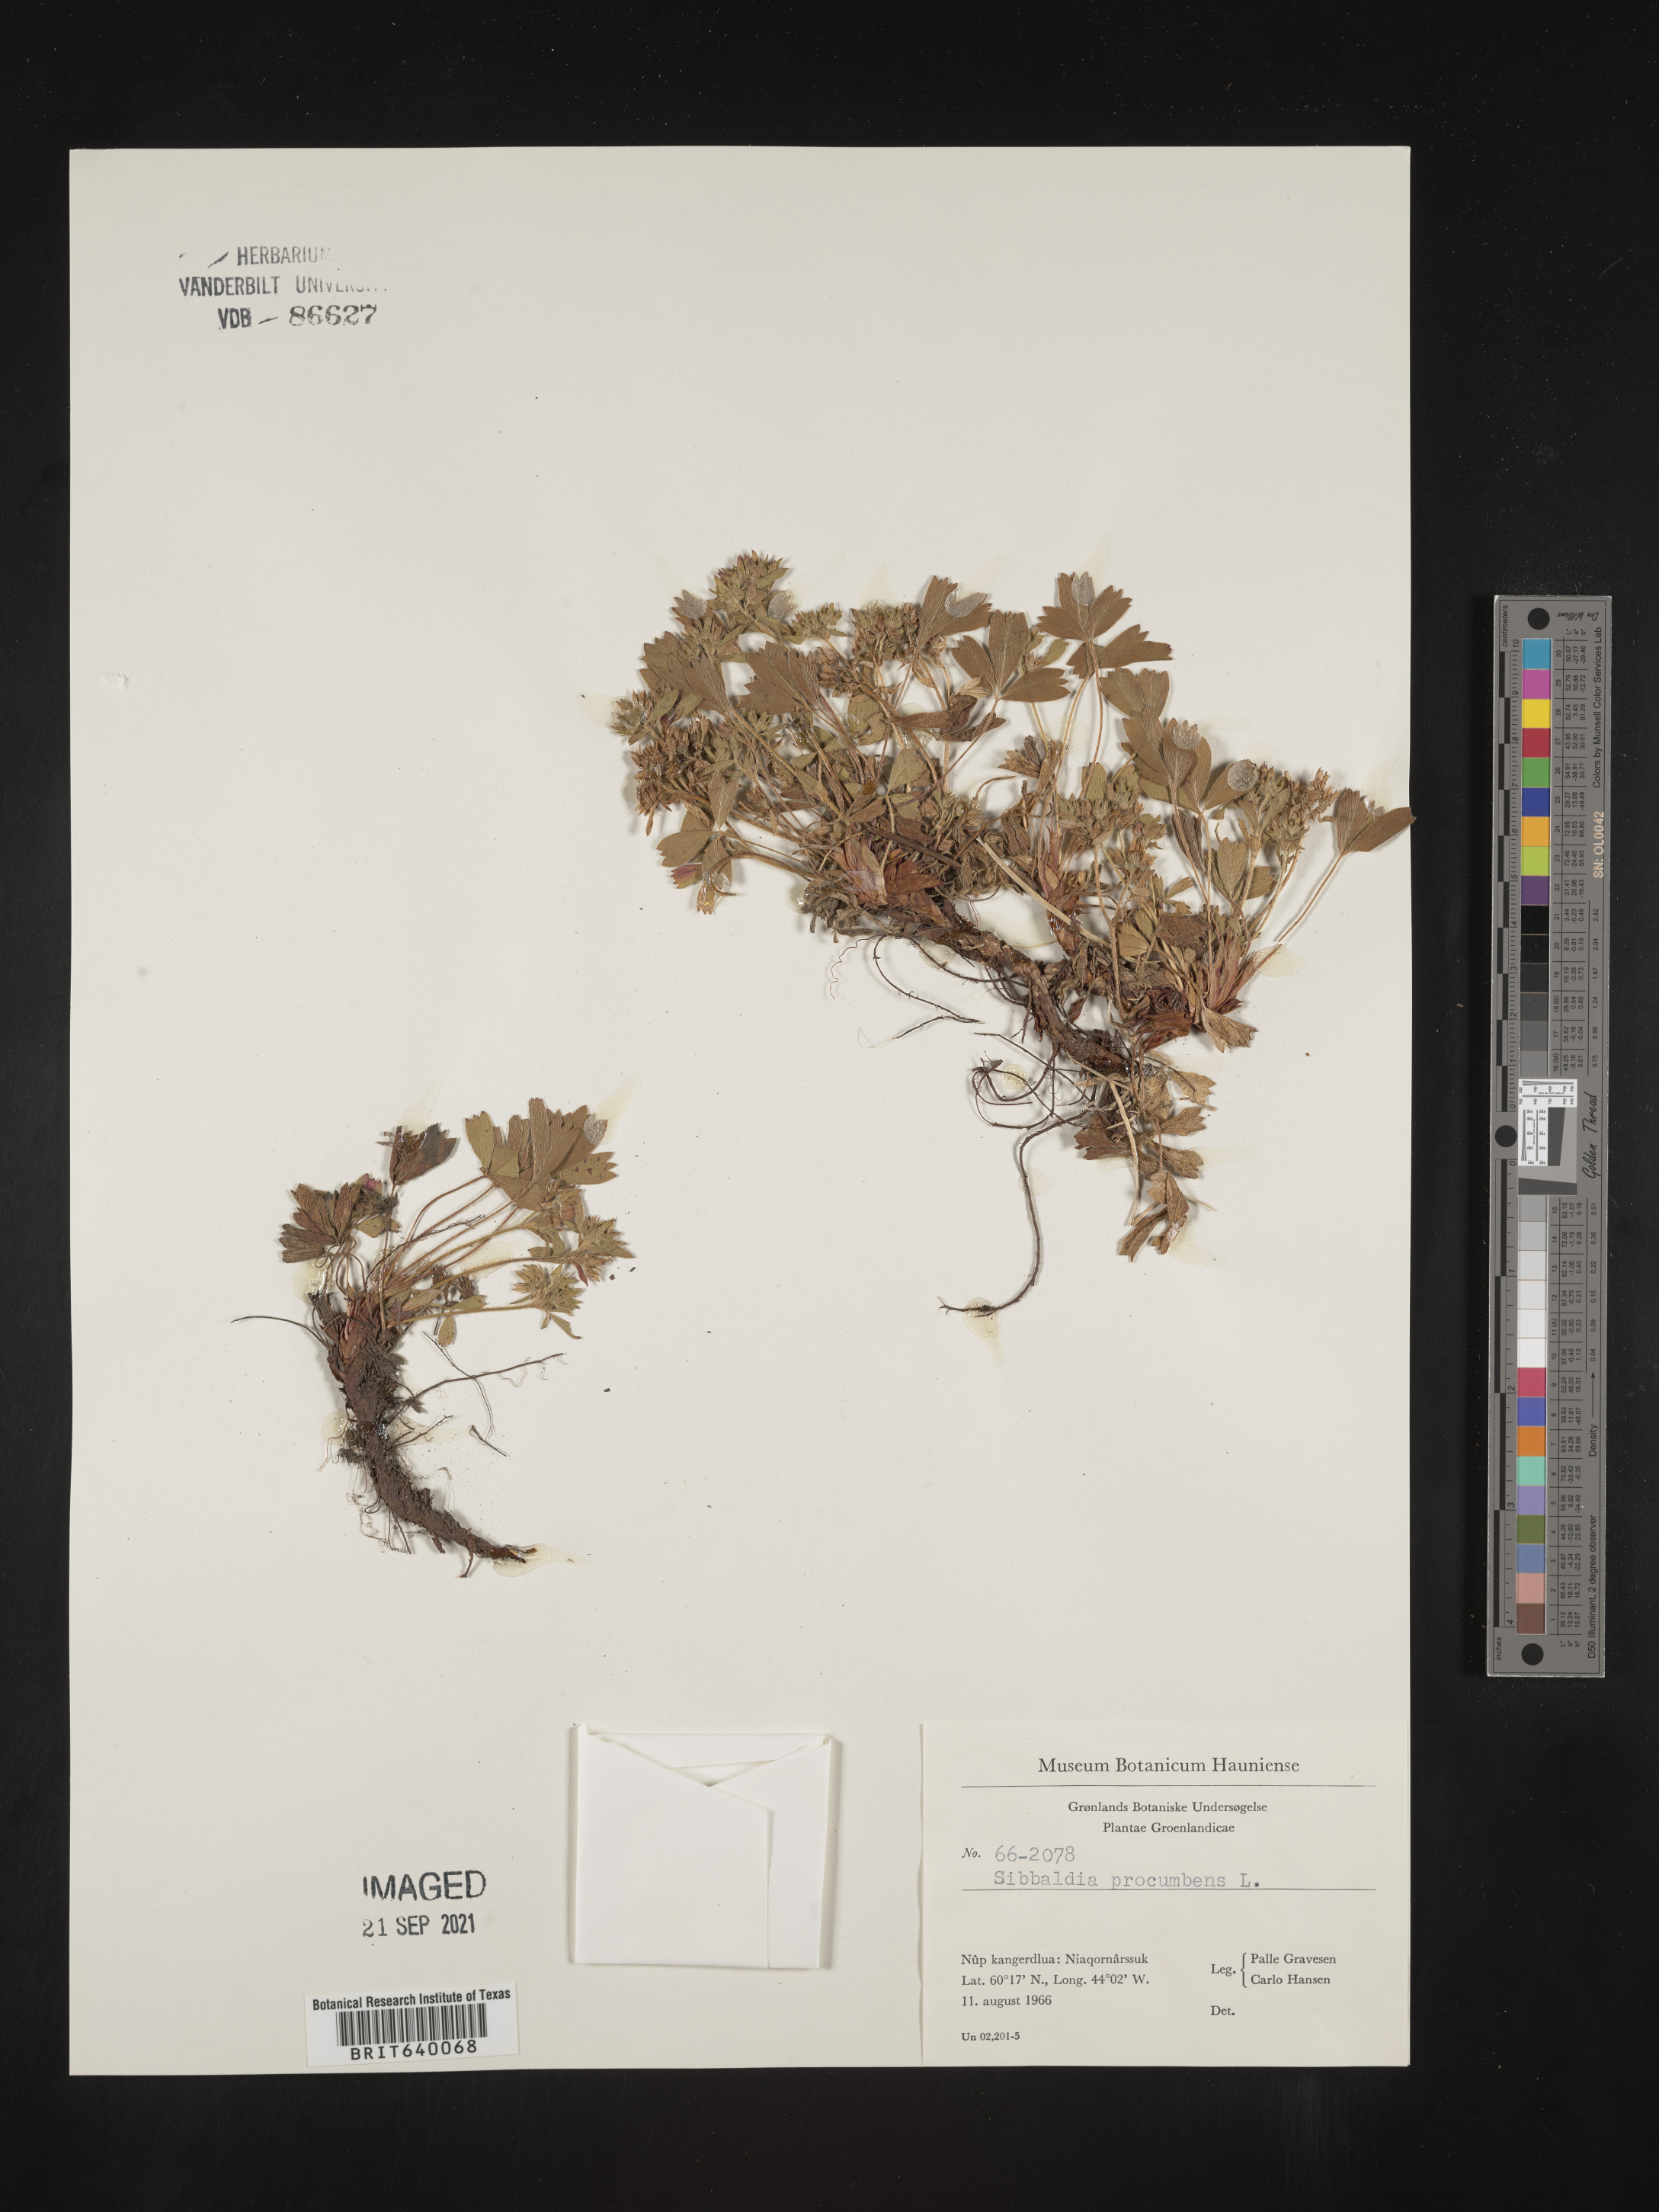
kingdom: Plantae
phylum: Tracheophyta
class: Magnoliopsida
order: Rosales
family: Rosaceae
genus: Sibbaldia
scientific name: Sibbaldia
